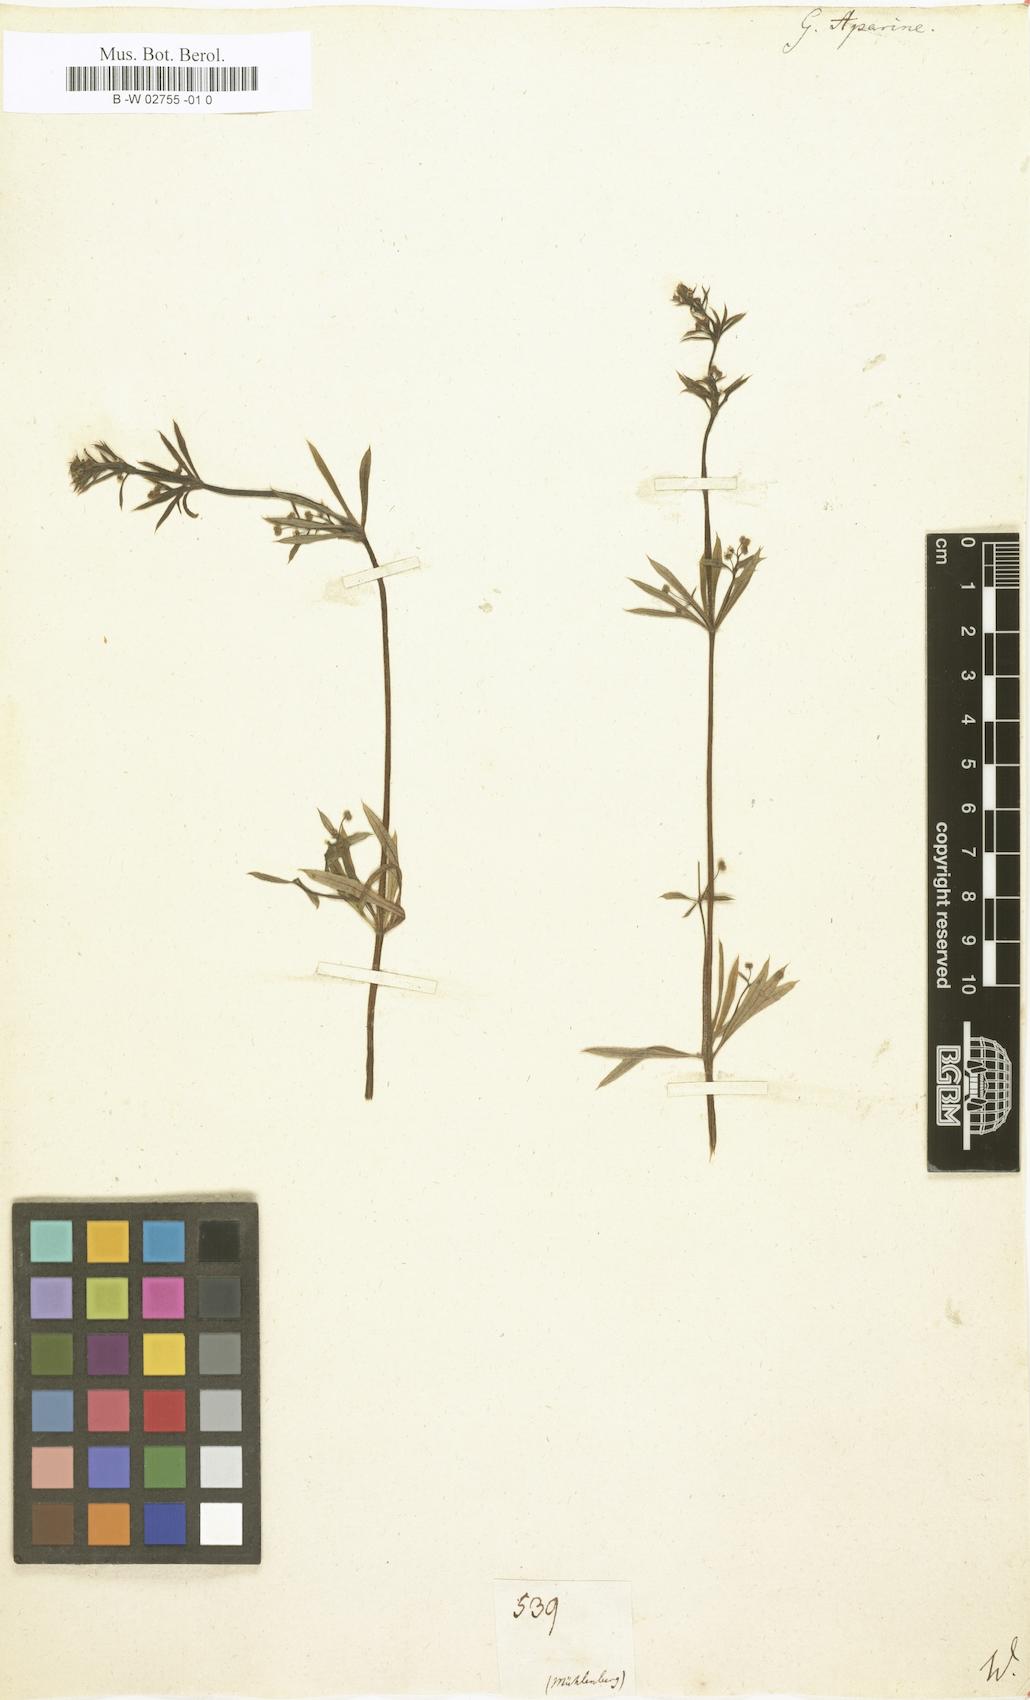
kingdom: Plantae
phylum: Tracheophyta
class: Magnoliopsida
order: Gentianales
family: Rubiaceae
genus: Galium
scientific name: Galium aparine
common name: Cleavers
